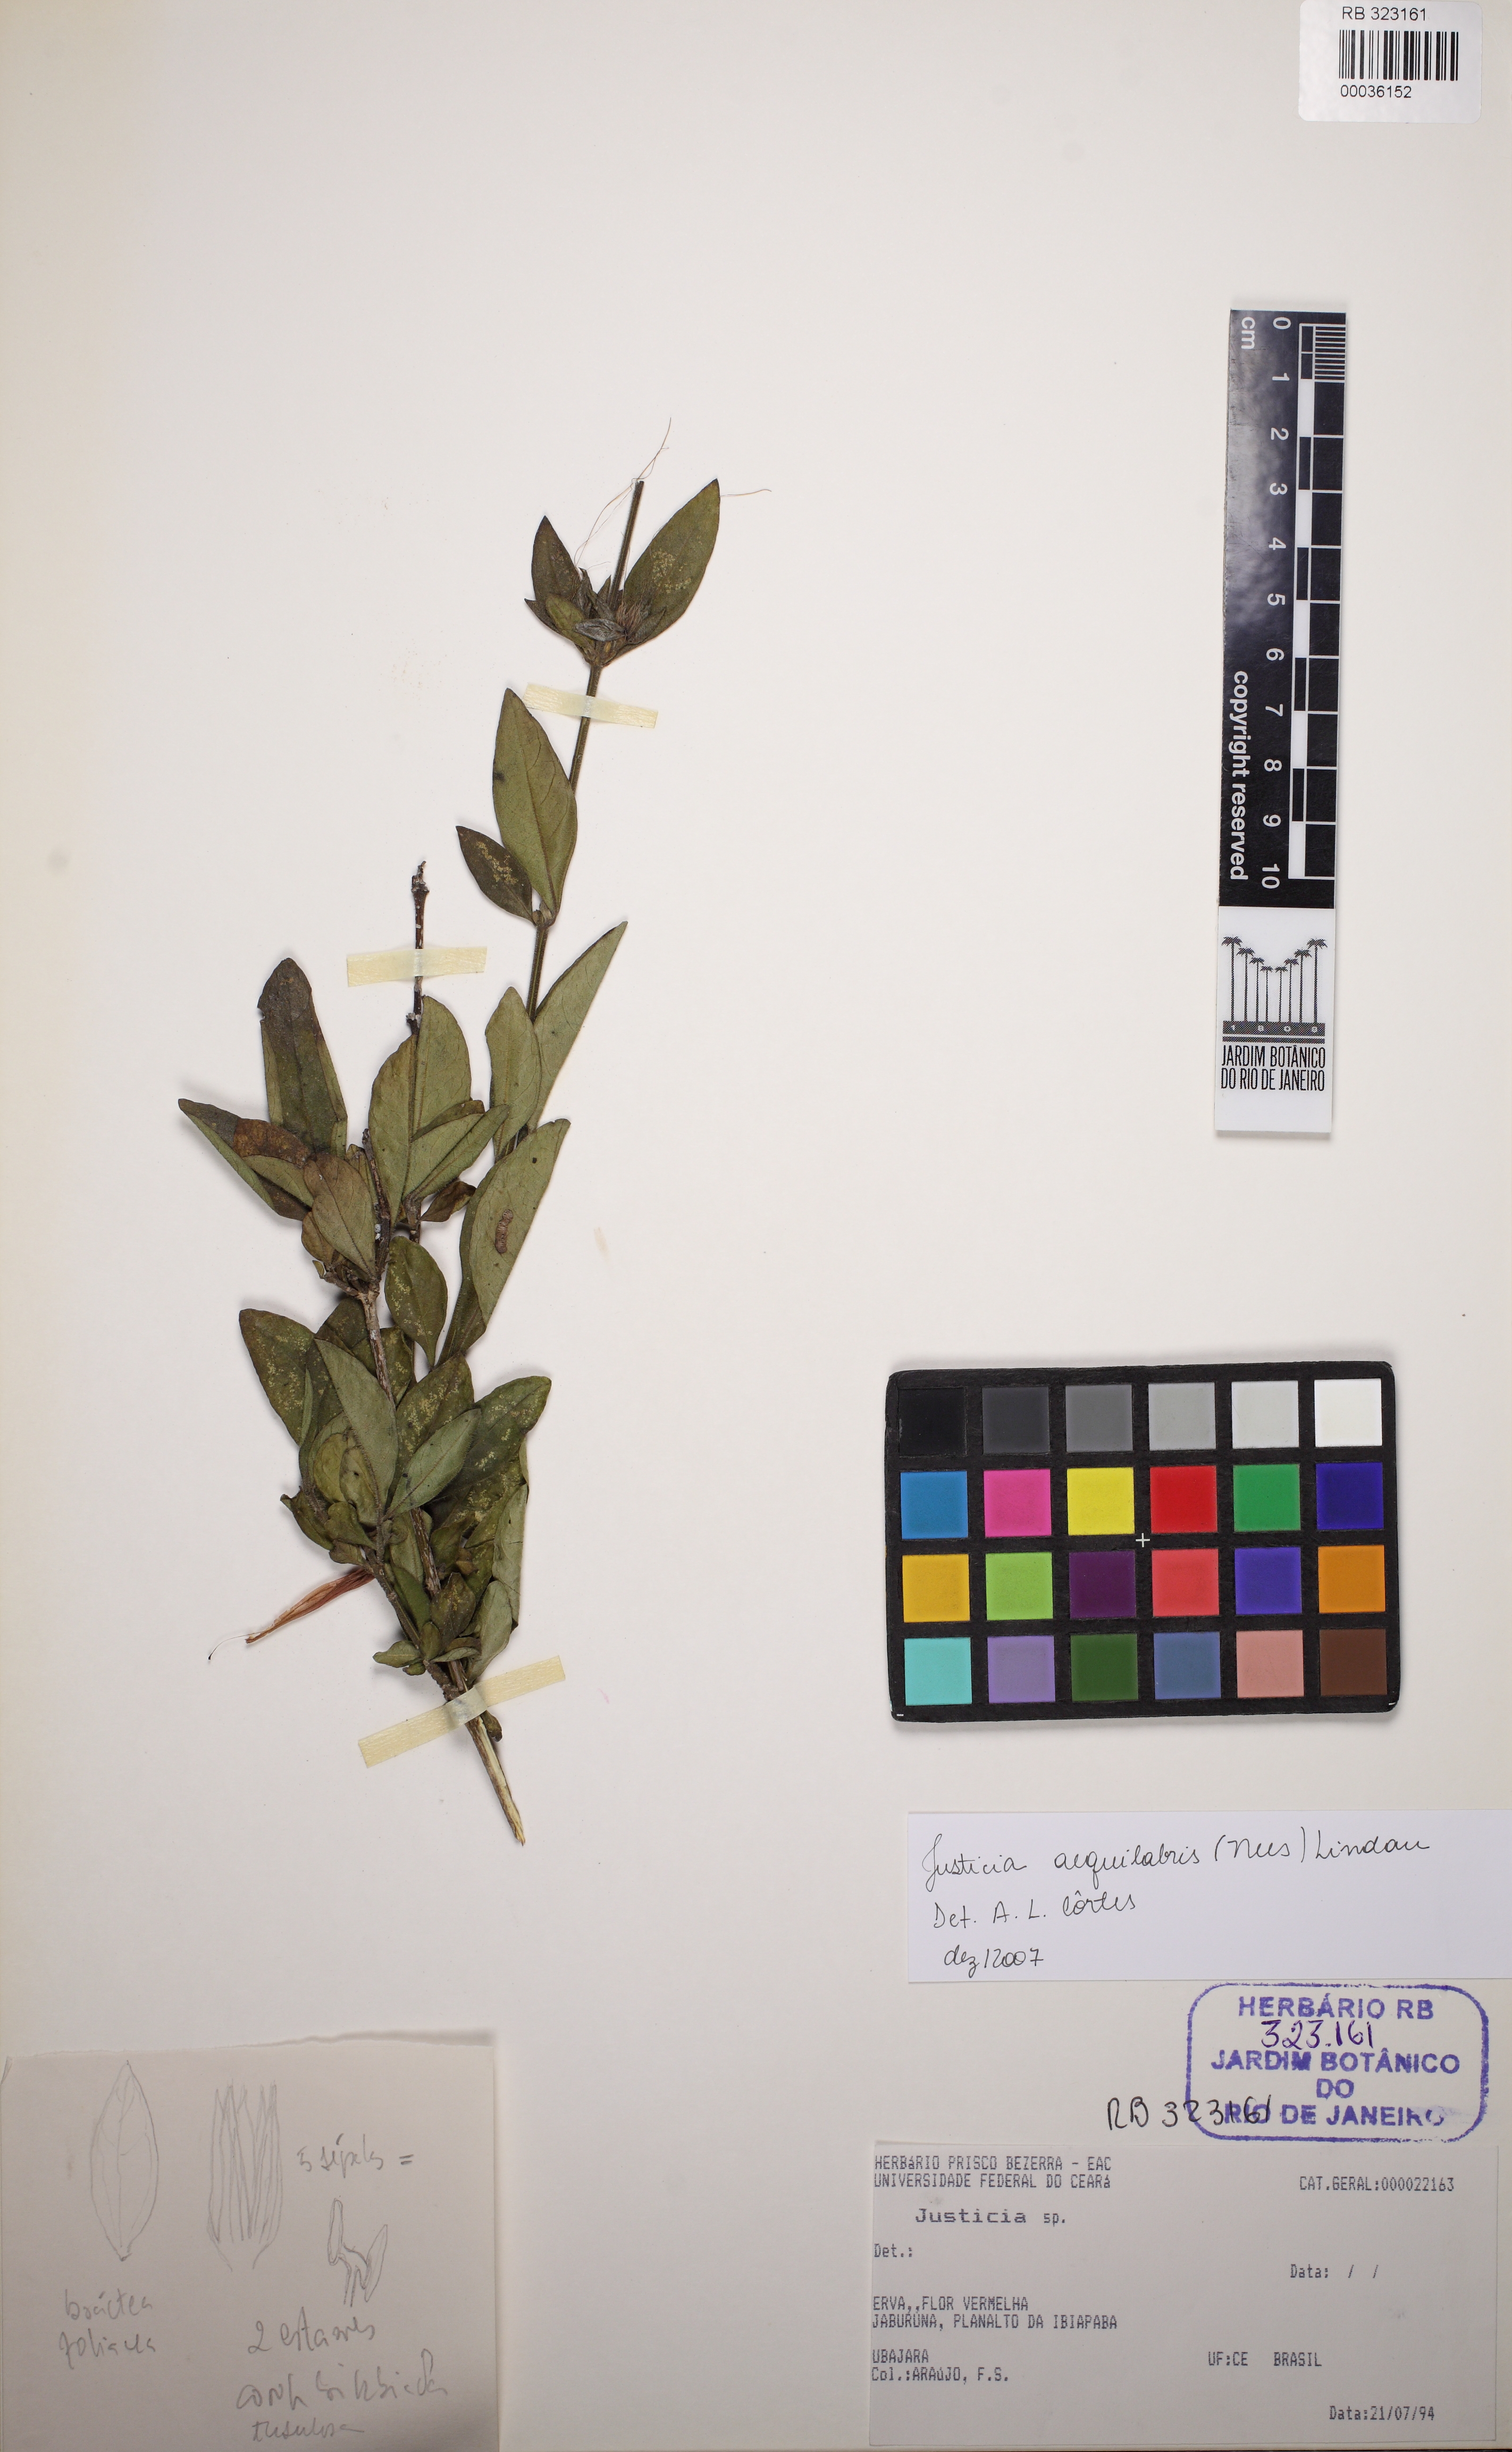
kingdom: Plantae
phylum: Tracheophyta
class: Magnoliopsida
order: Lamiales
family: Acanthaceae
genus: Justicia
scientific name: Justicia aequilabris
